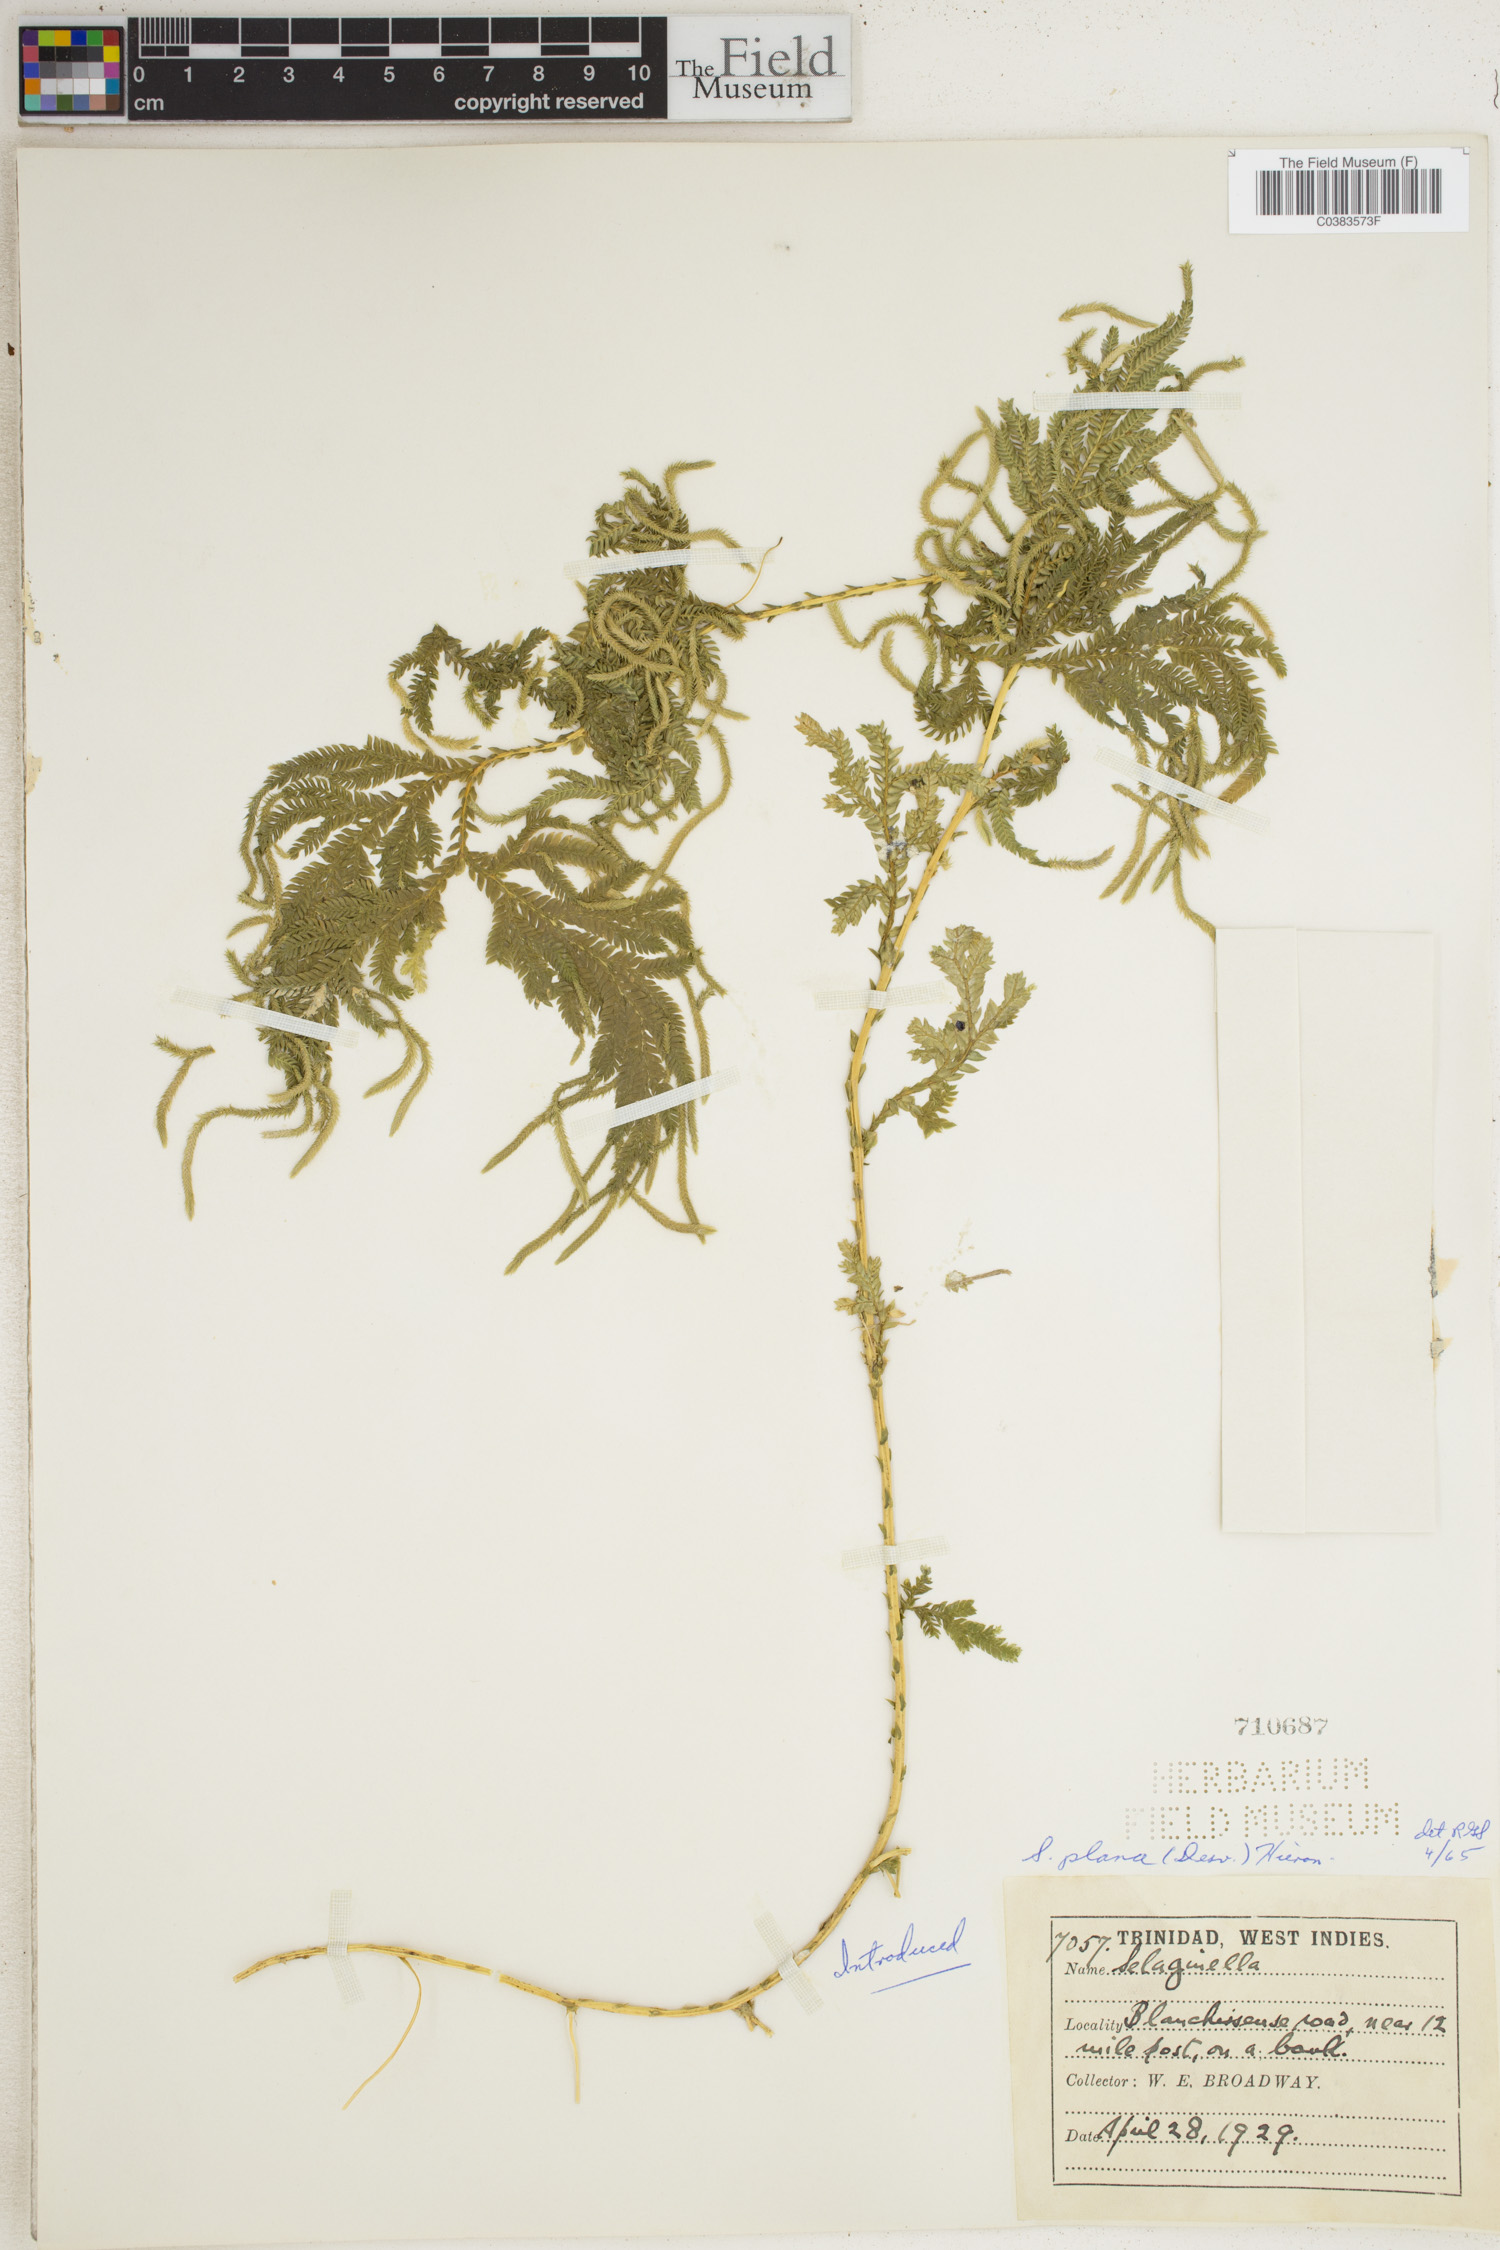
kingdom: Plantae
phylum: Tracheophyta
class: Lycopodiopsida
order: Selaginellales
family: Selaginellaceae
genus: Selaginella
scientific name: Selaginella plana
